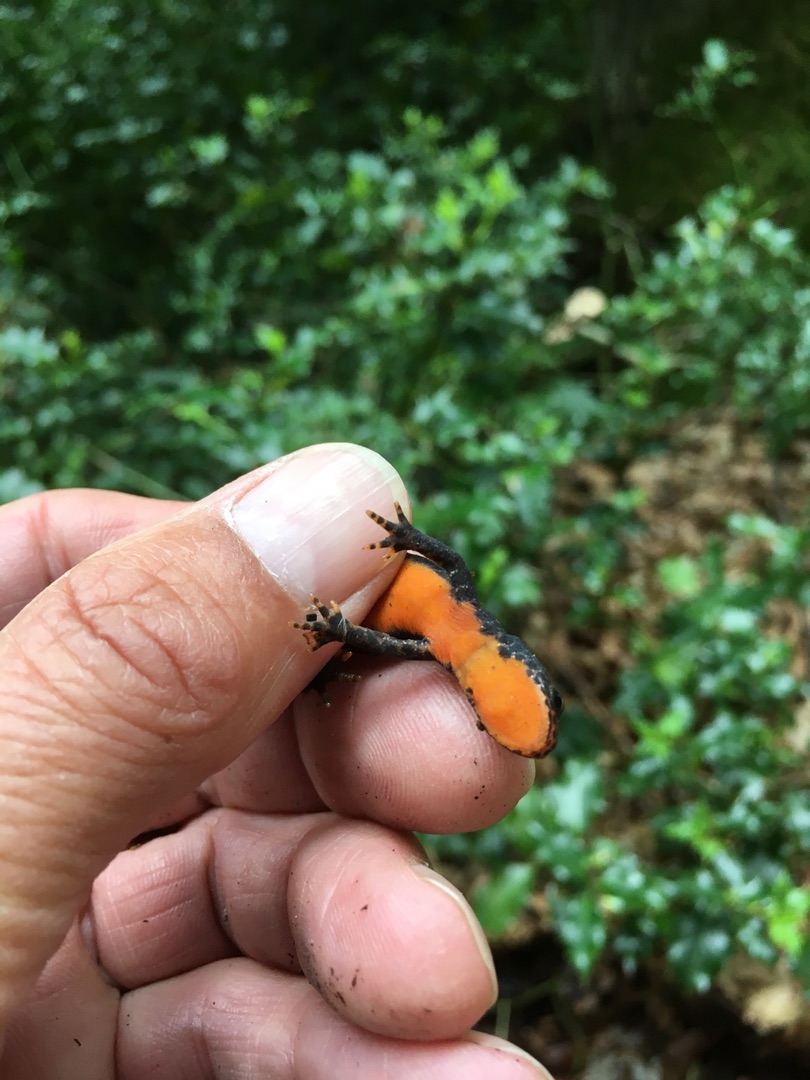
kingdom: Animalia
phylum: Chordata
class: Amphibia
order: Caudata
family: Salamandridae
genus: Ichthyosaura
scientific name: Ichthyosaura alpestris
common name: Bjergsalamander
